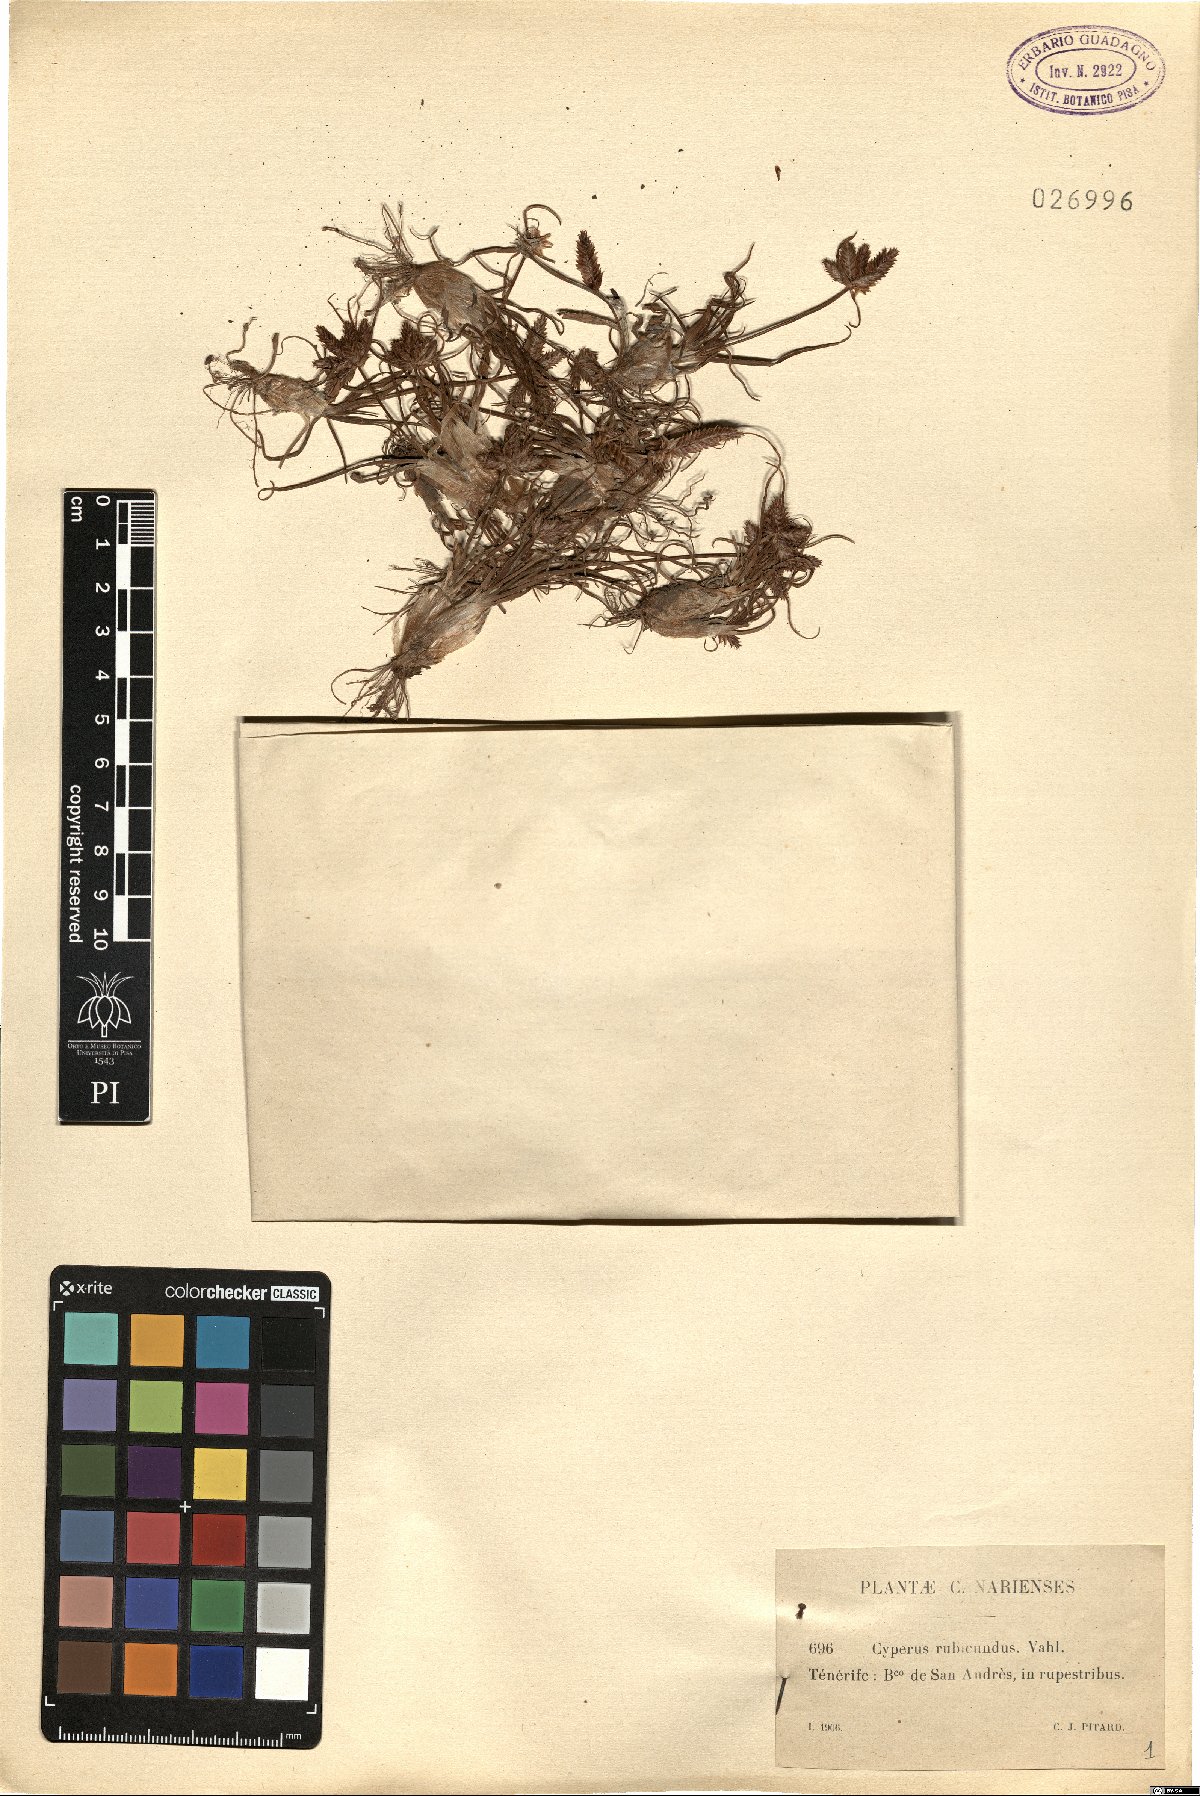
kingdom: Plantae
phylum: Tracheophyta
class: Liliopsida
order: Poales
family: Cyperaceae
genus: Cyperus
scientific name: Cyperus rubicundus
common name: Coco-grass
